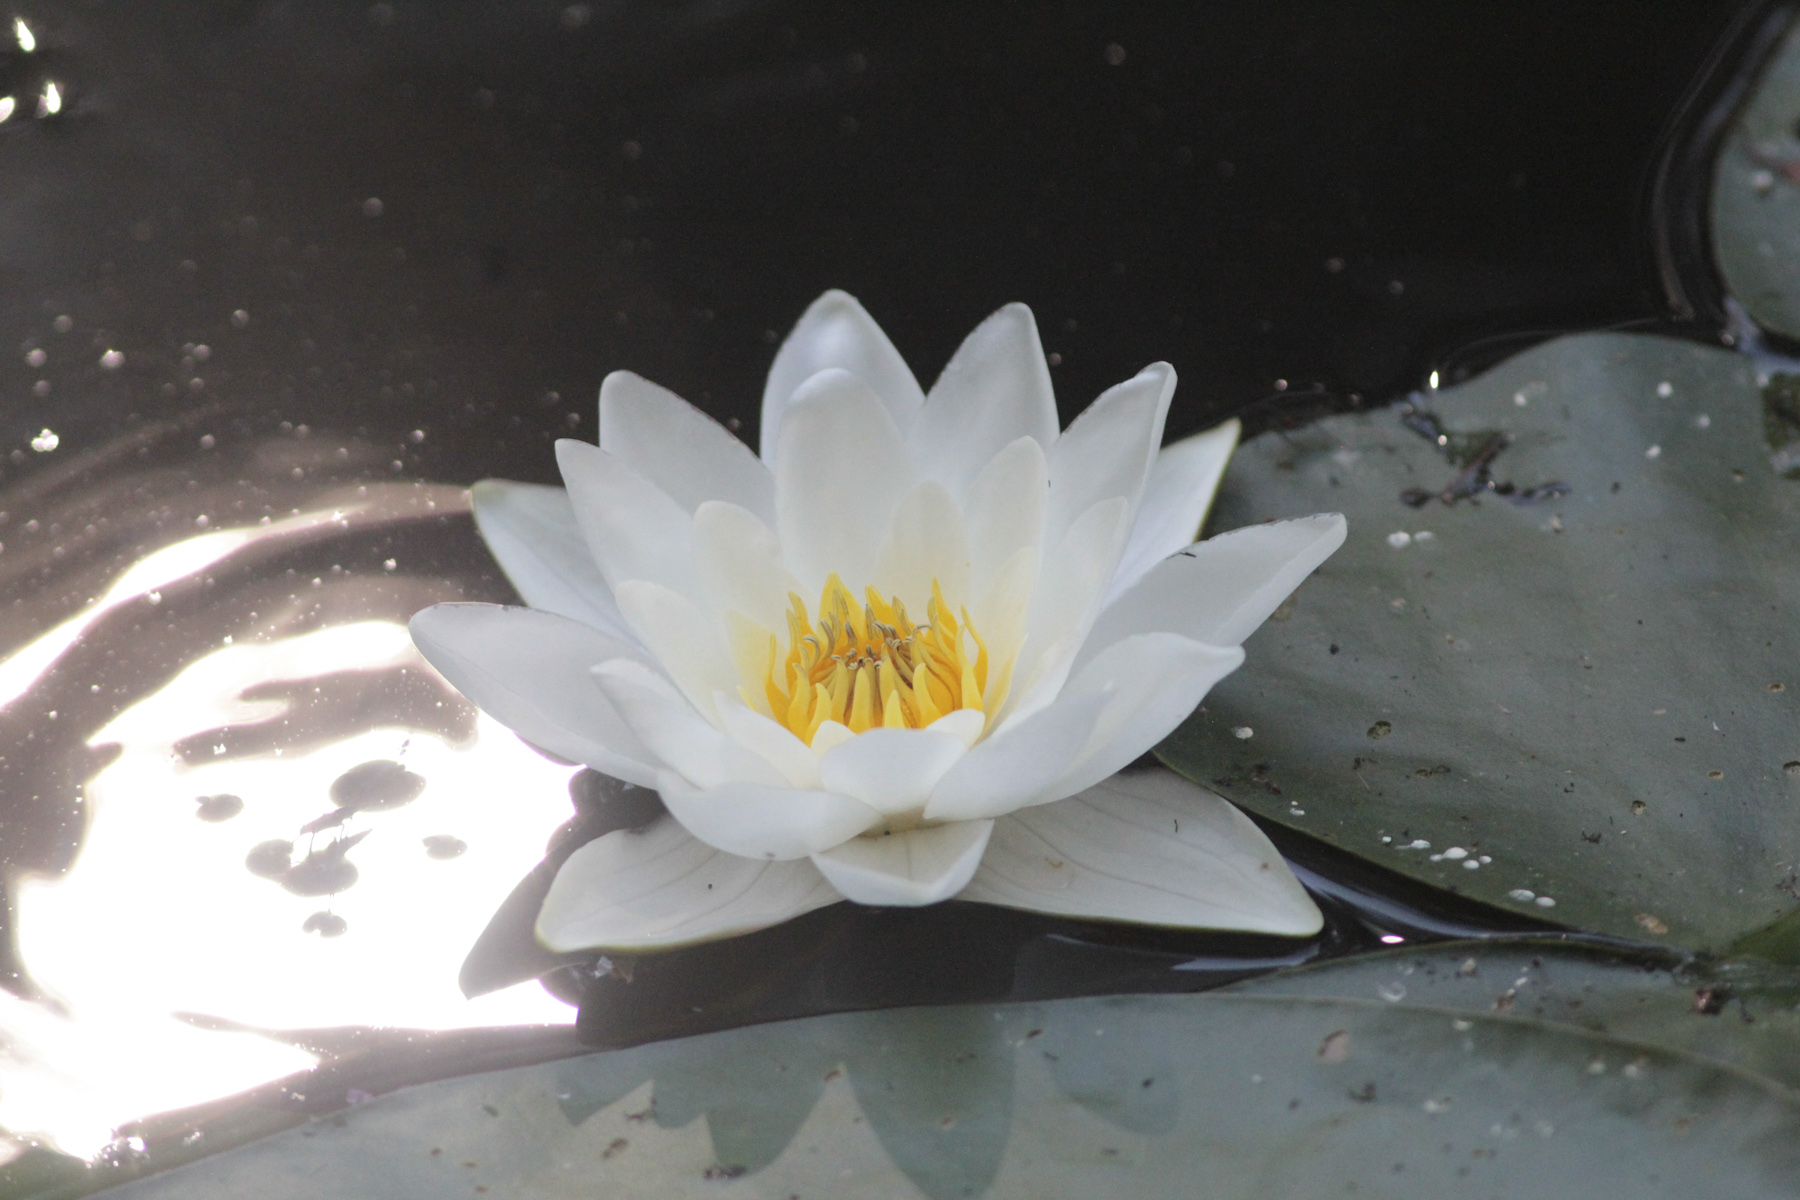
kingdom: Plantae
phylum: Tracheophyta
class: Magnoliopsida
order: Nymphaeales
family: Nymphaeaceae
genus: Nymphaea
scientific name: Nymphaea candida
